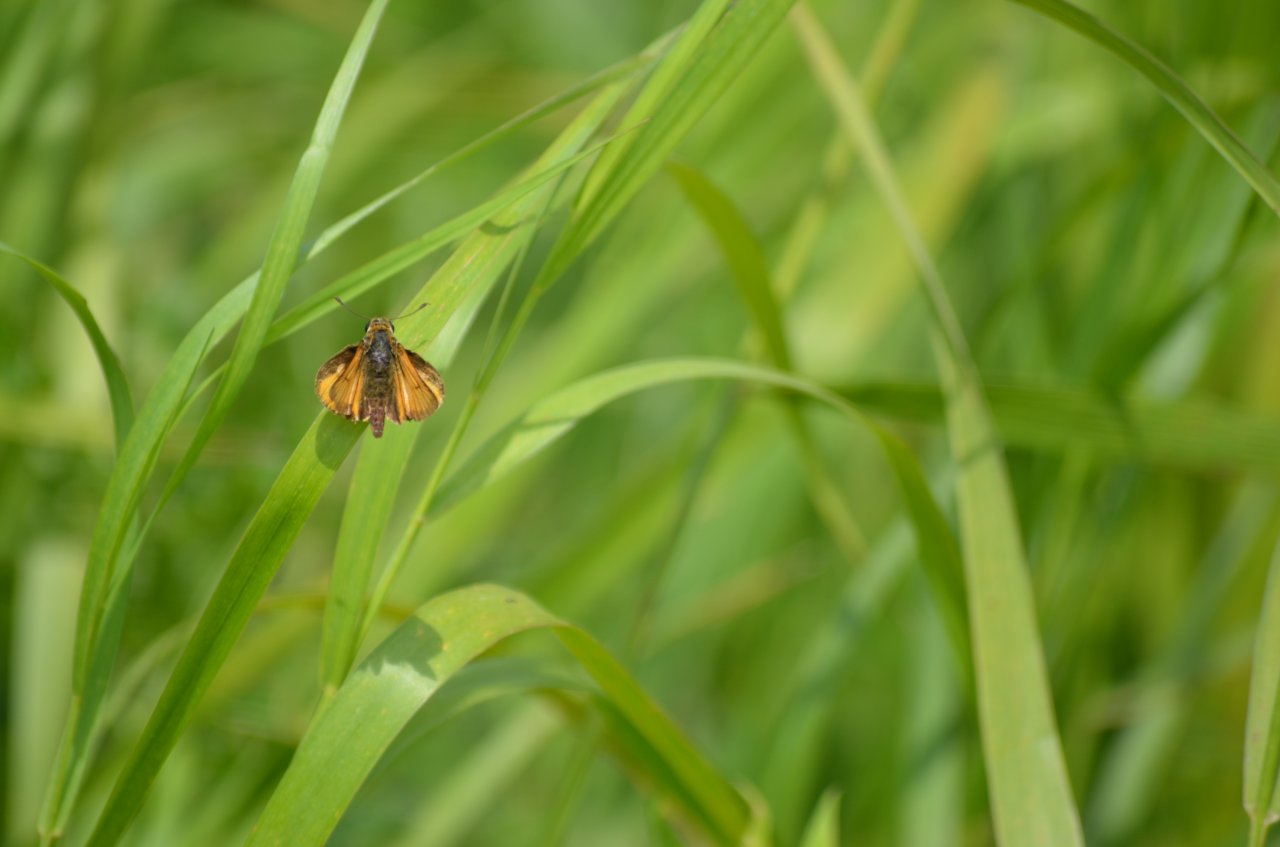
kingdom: Animalia
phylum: Arthropoda
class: Insecta
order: Lepidoptera
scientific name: Lepidoptera
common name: Butterflies
